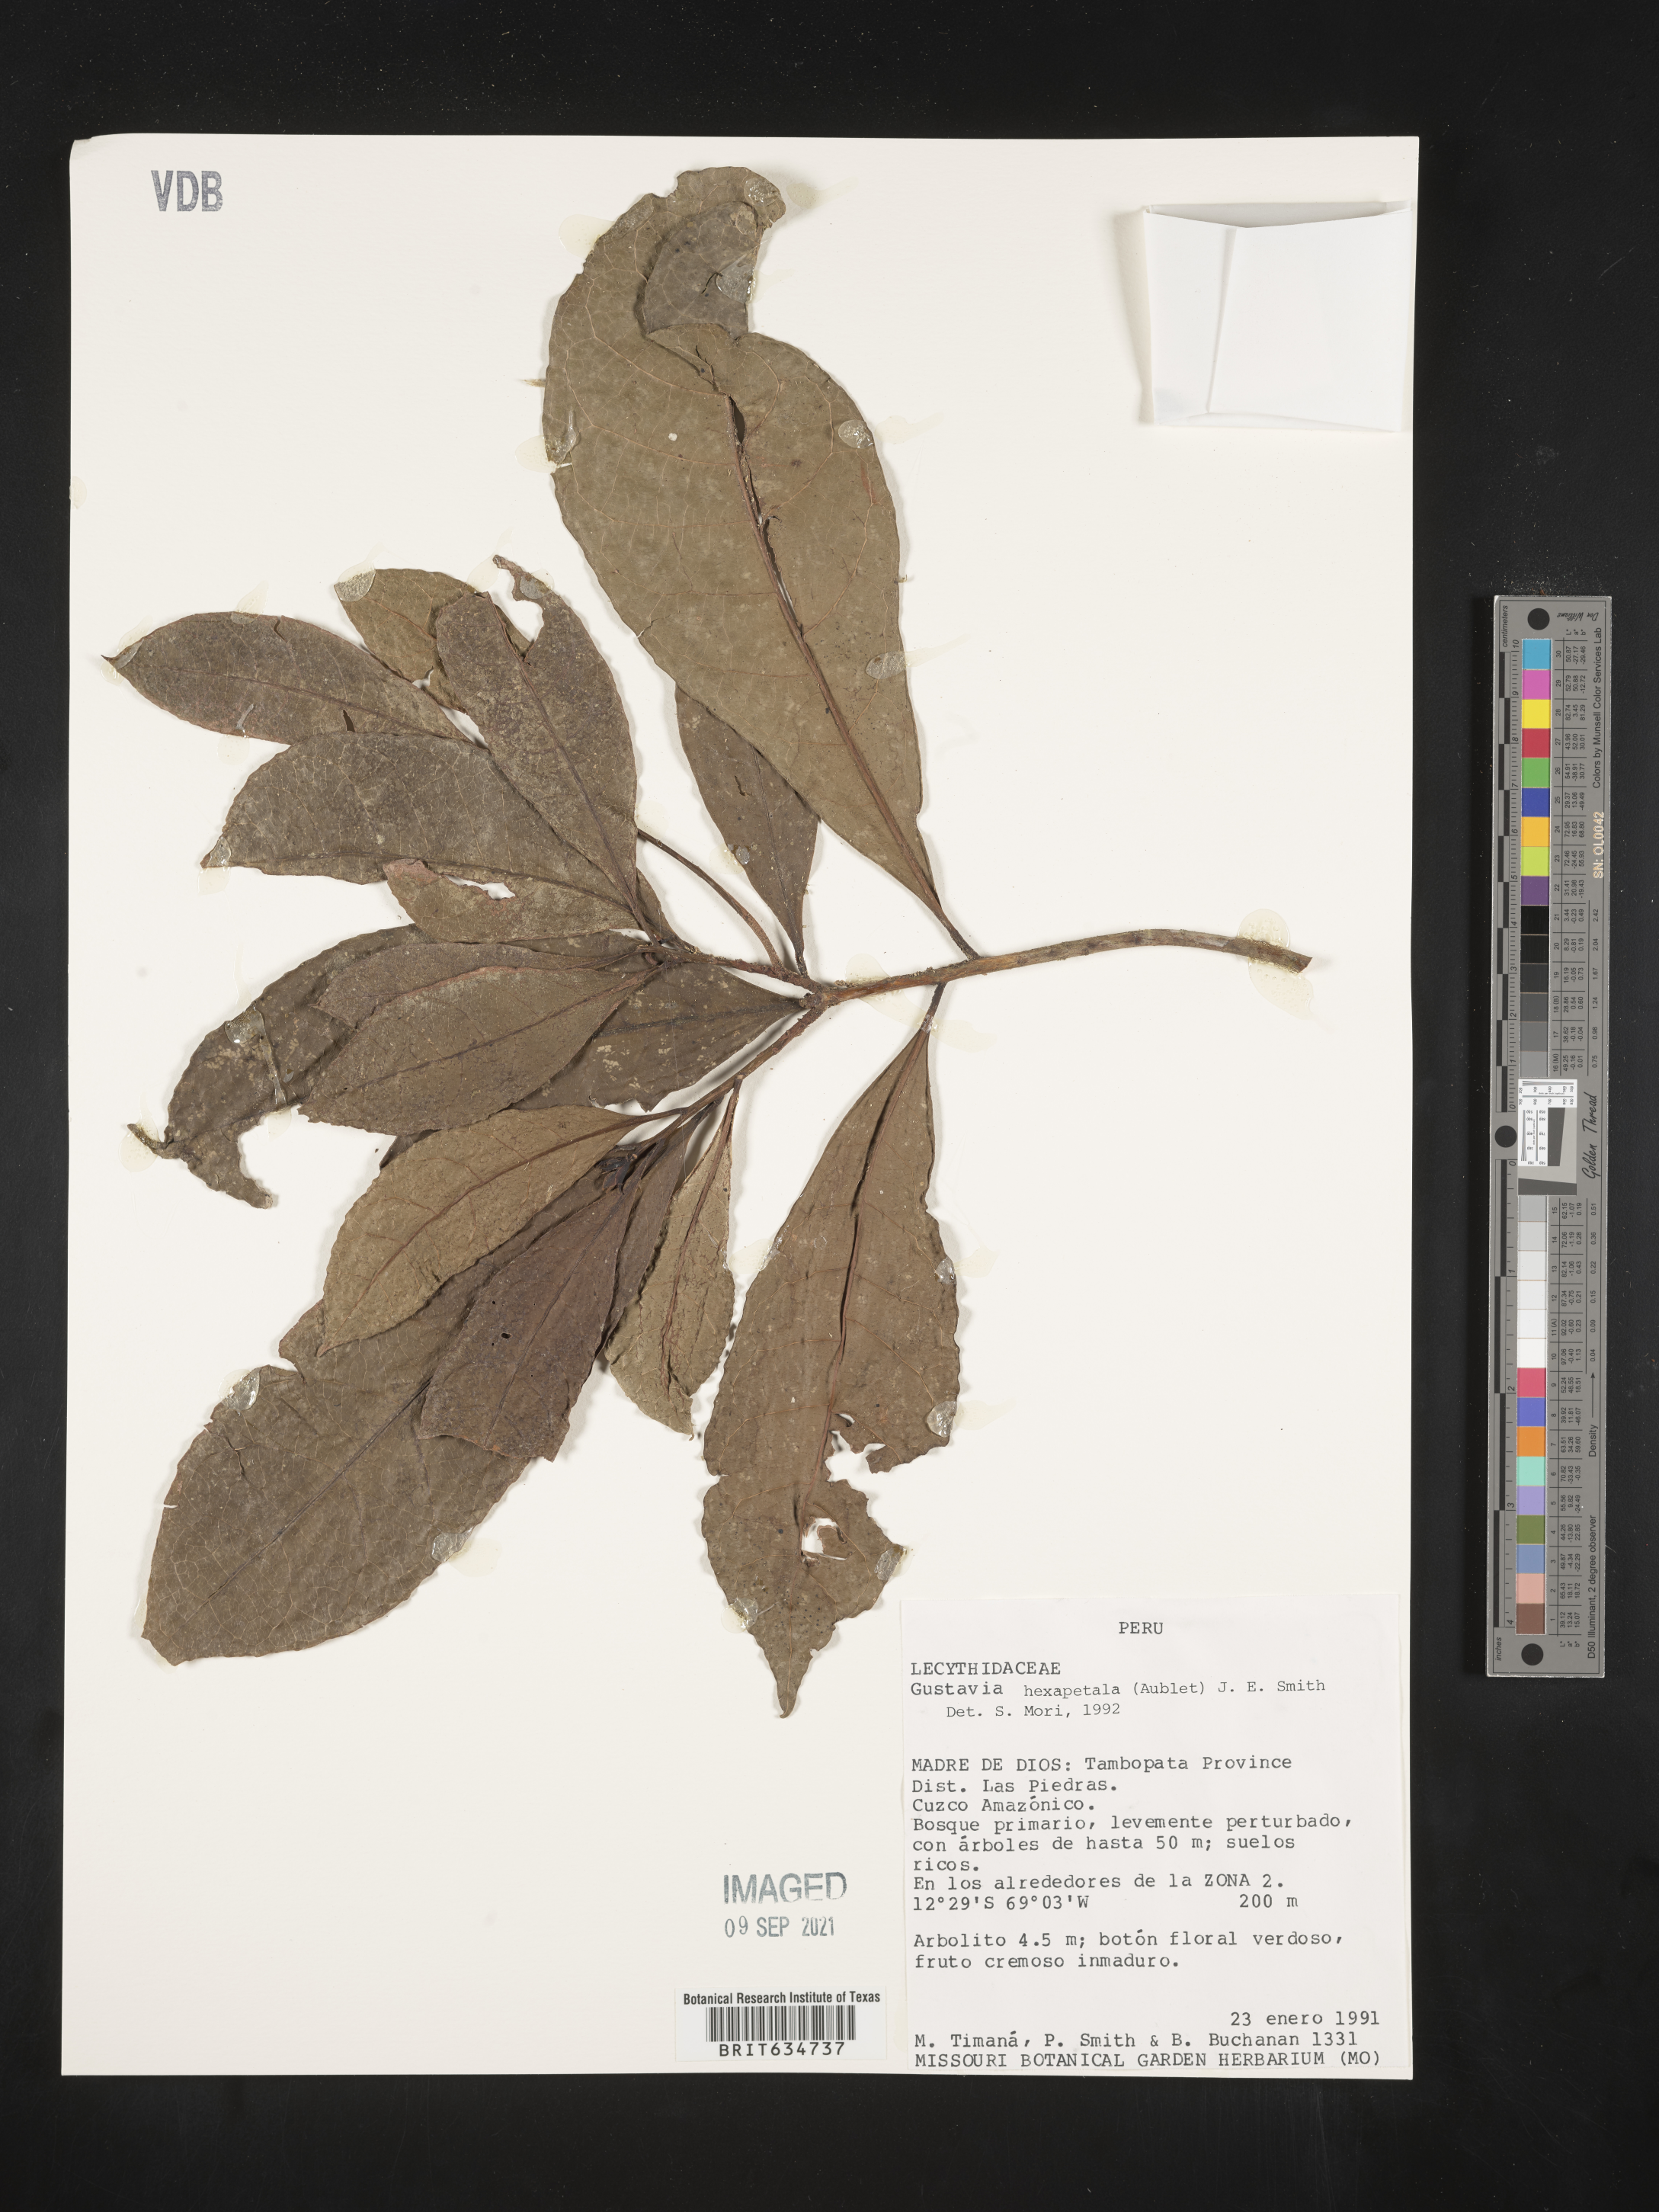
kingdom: Plantae
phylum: Tracheophyta
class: Magnoliopsida
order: Ericales
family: Lecythidaceae
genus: Gustavia
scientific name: Gustavia
